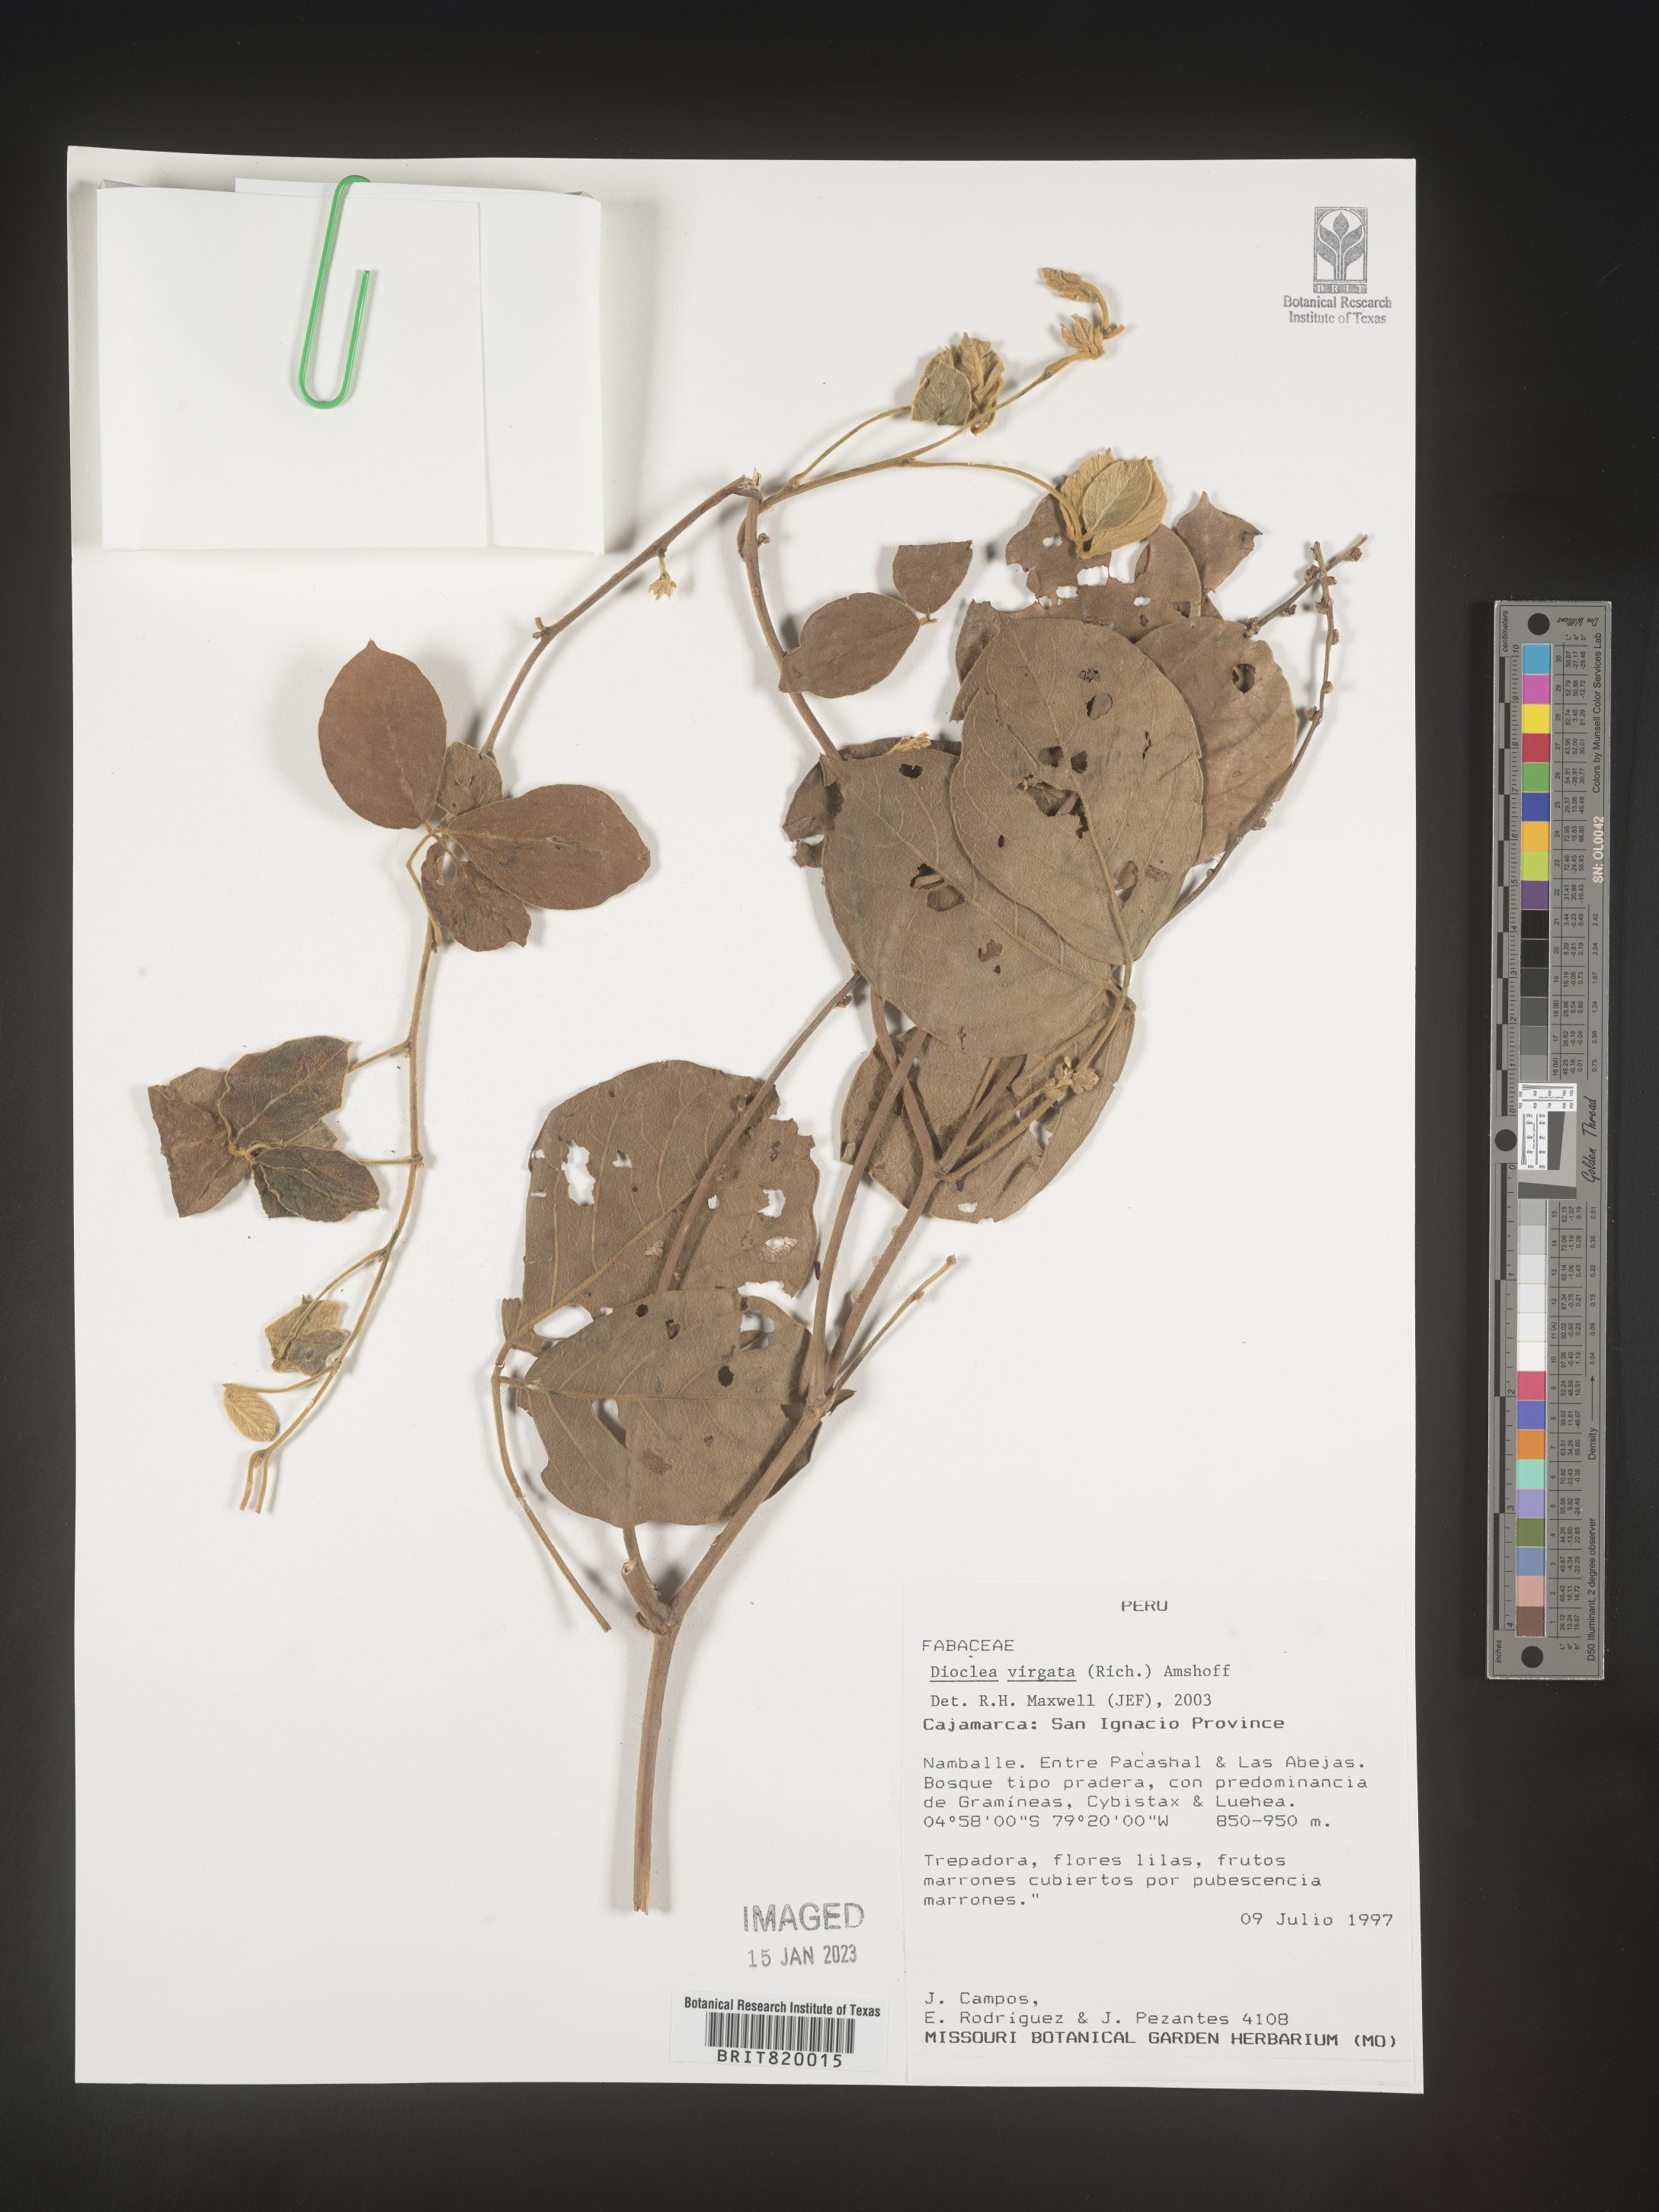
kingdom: Plantae
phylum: Tracheophyta
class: Magnoliopsida
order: Fabales
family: Fabaceae
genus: Dioclea
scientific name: Dioclea
